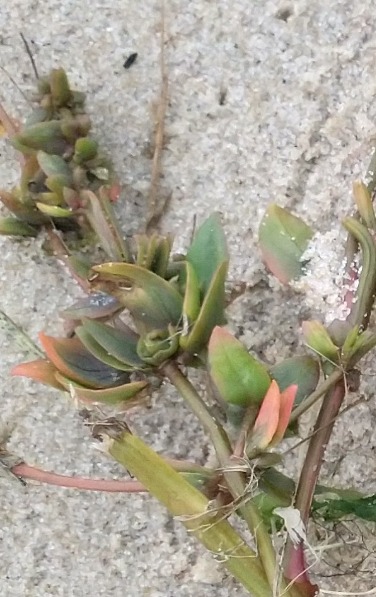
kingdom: Plantae
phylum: Tracheophyta
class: Magnoliopsida
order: Caryophyllales
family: Amaranthaceae
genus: Atriplex
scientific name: Atriplex longipes
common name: Stilk-mælde
